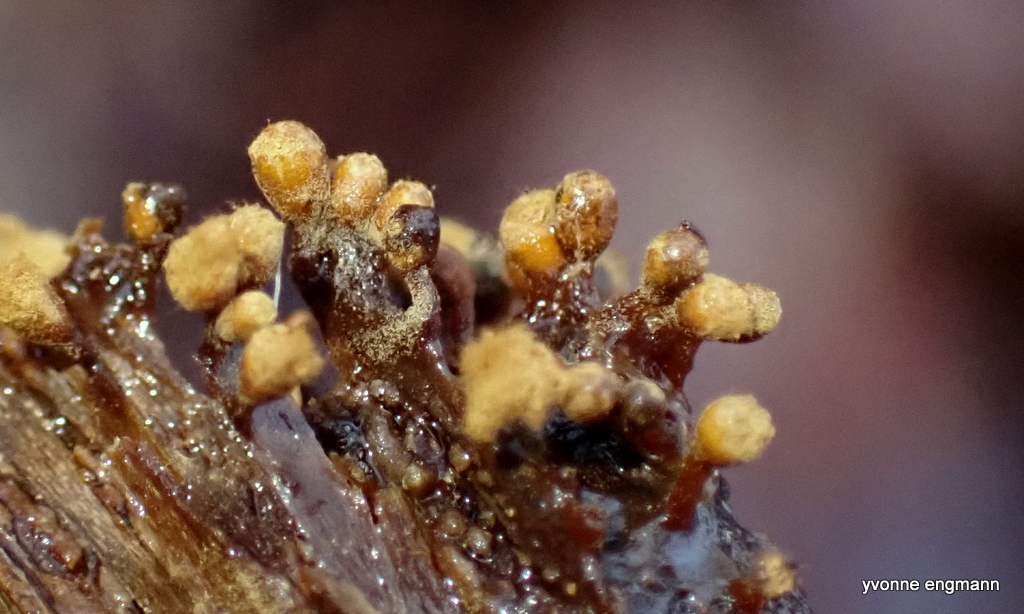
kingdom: Protozoa
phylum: Mycetozoa
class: Myxomycetes
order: Trichiales
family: Trichiaceae
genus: Trichia
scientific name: Trichia
